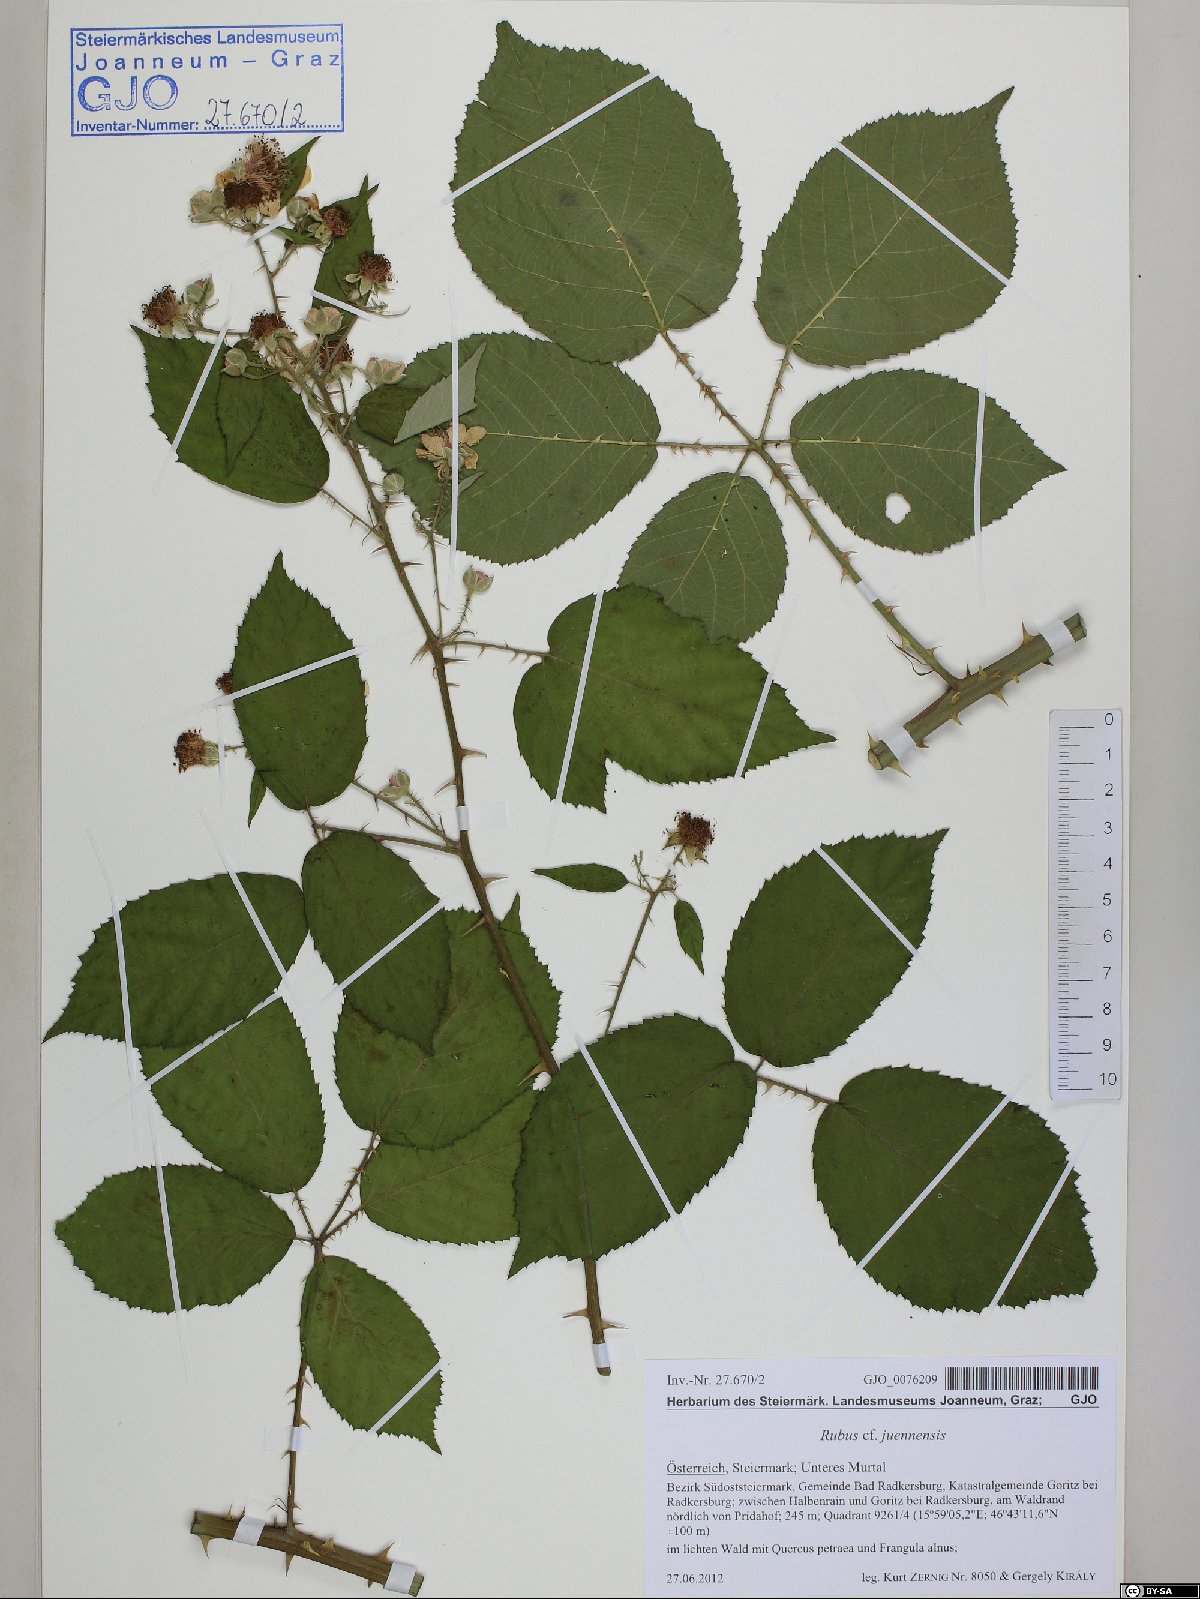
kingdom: Plantae
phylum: Tracheophyta
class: Magnoliopsida
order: Rosales
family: Rosaceae
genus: Rubus
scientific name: Rubus juennensis
